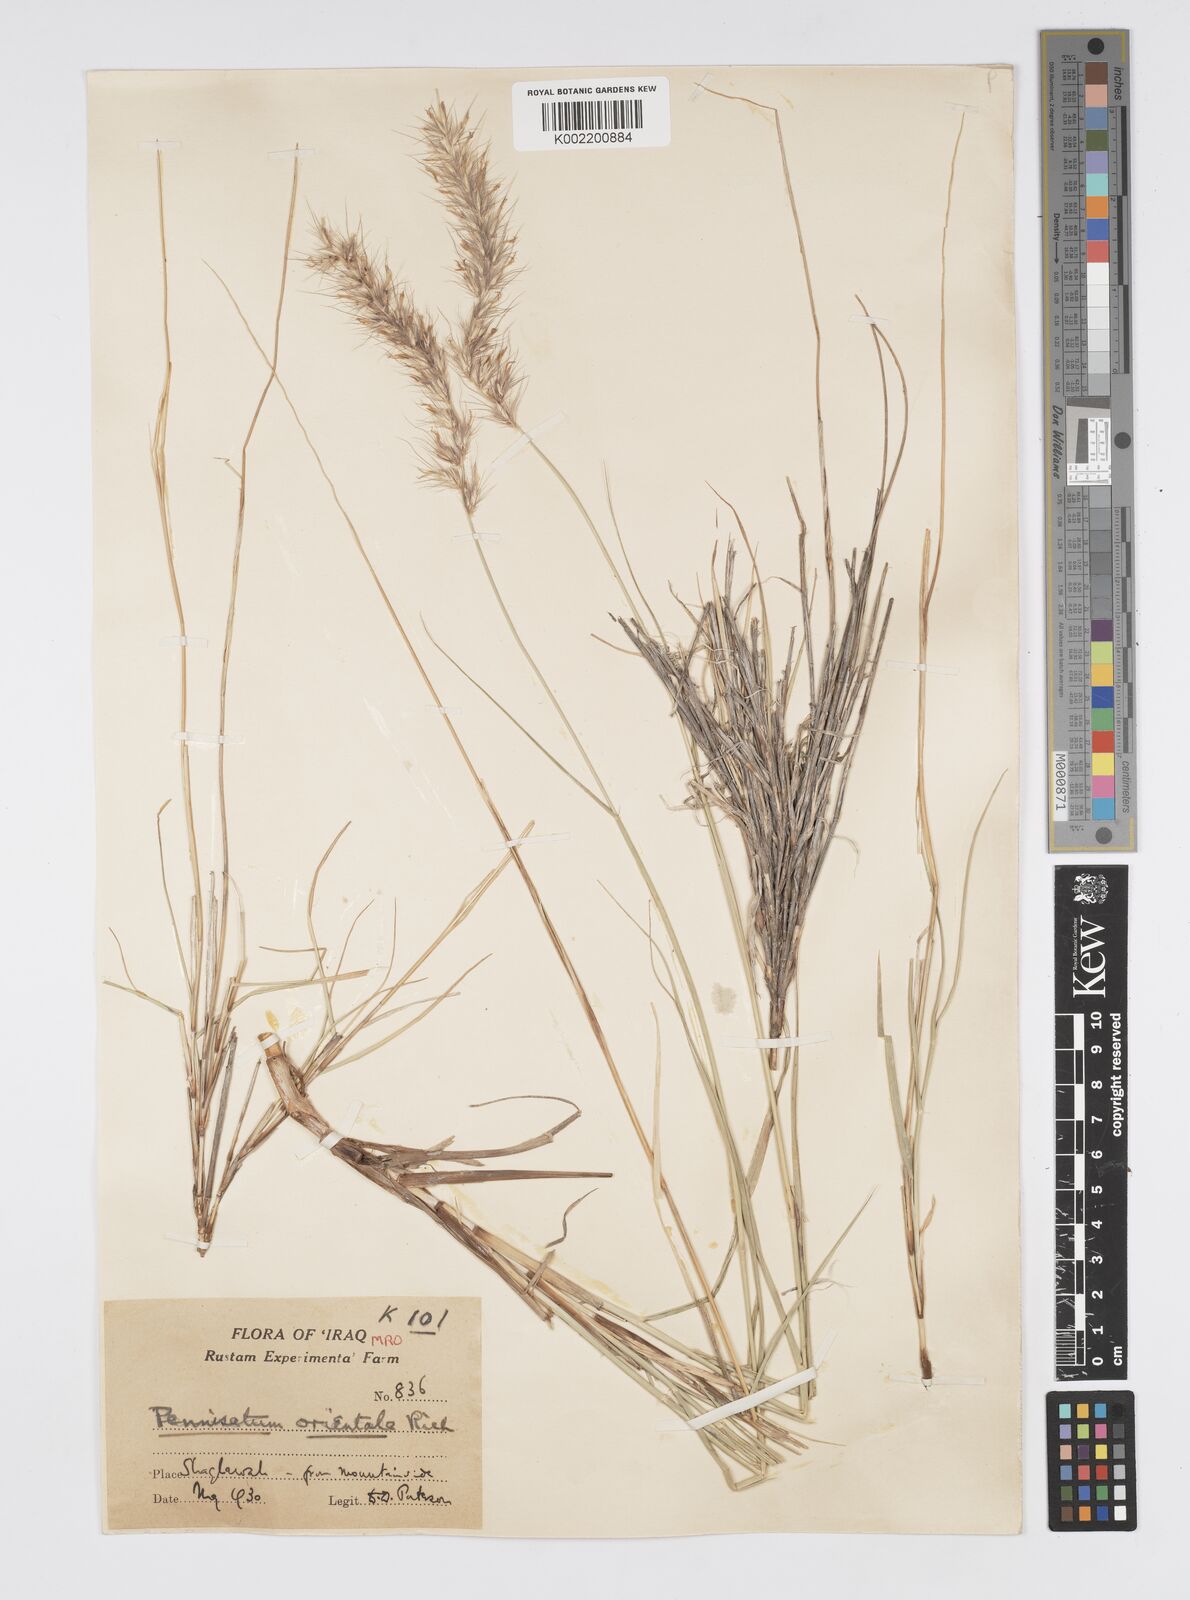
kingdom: Plantae
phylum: Tracheophyta
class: Liliopsida
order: Poales
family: Poaceae
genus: Cenchrus
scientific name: Cenchrus orientalis
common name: Oriental fountain grass
